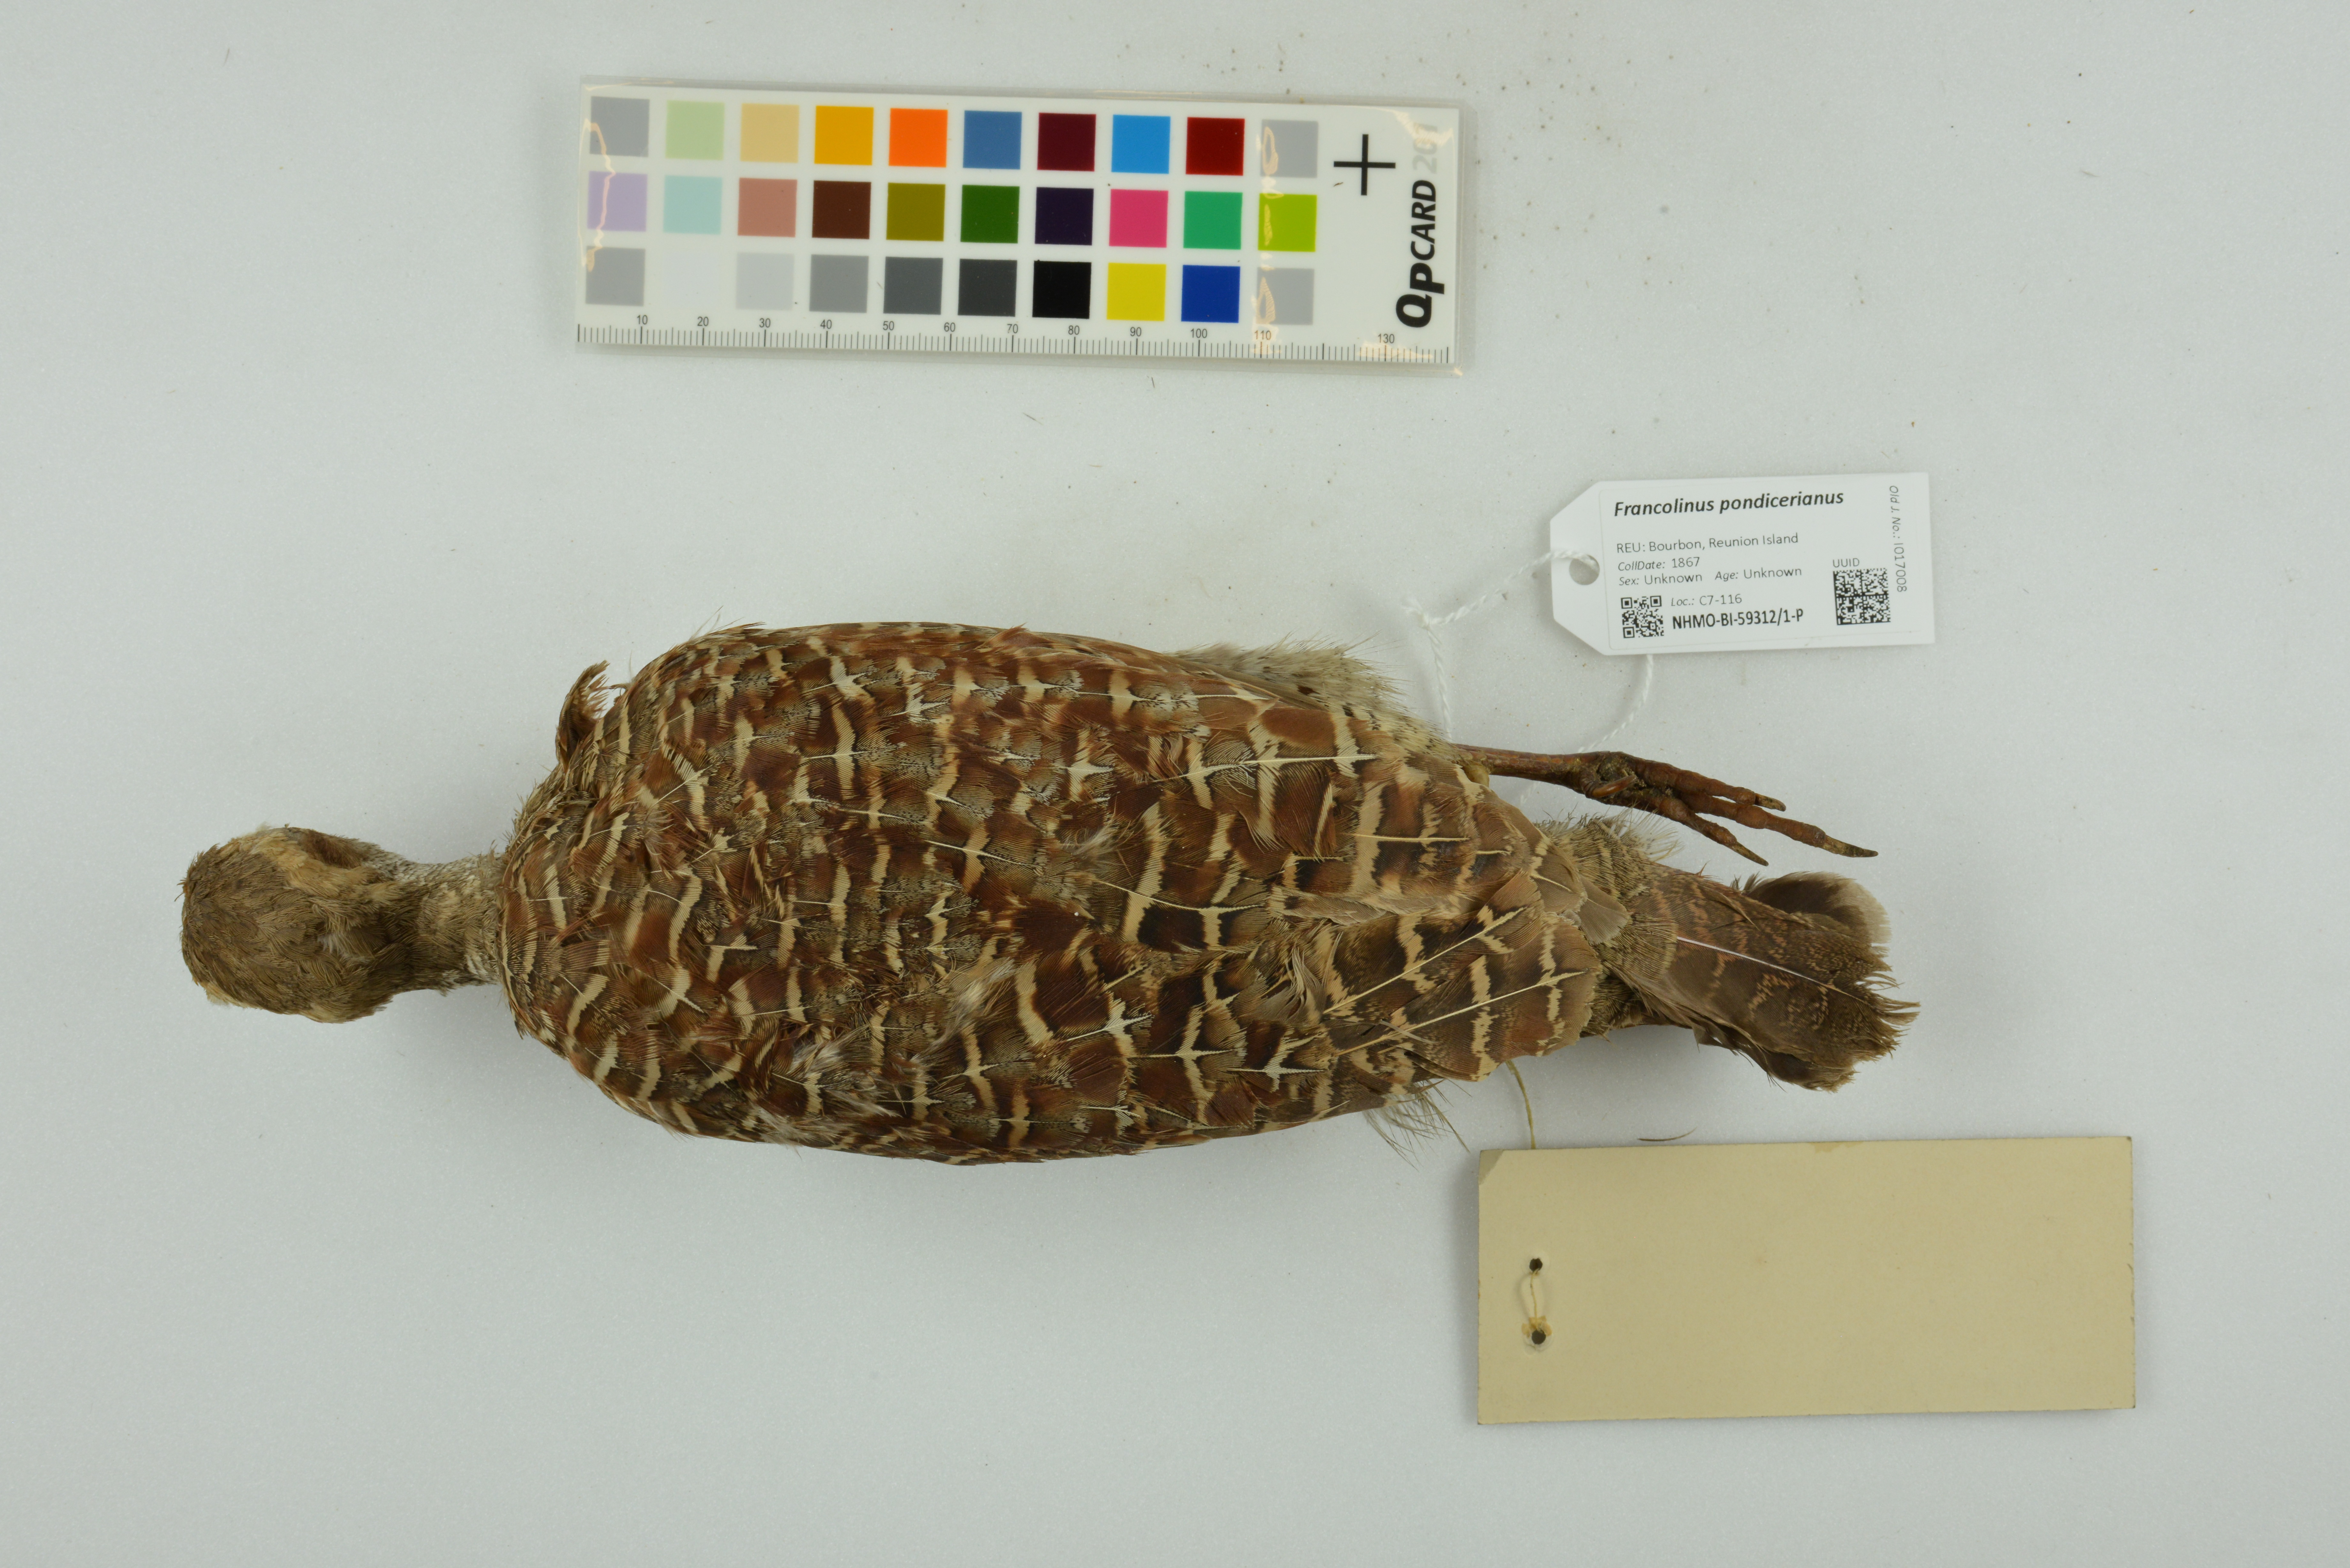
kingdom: Animalia
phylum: Chordata
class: Aves
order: Galliformes
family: Phasianidae
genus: Ortygornis
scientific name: Ortygornis pondicerianus
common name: Grey francolin
